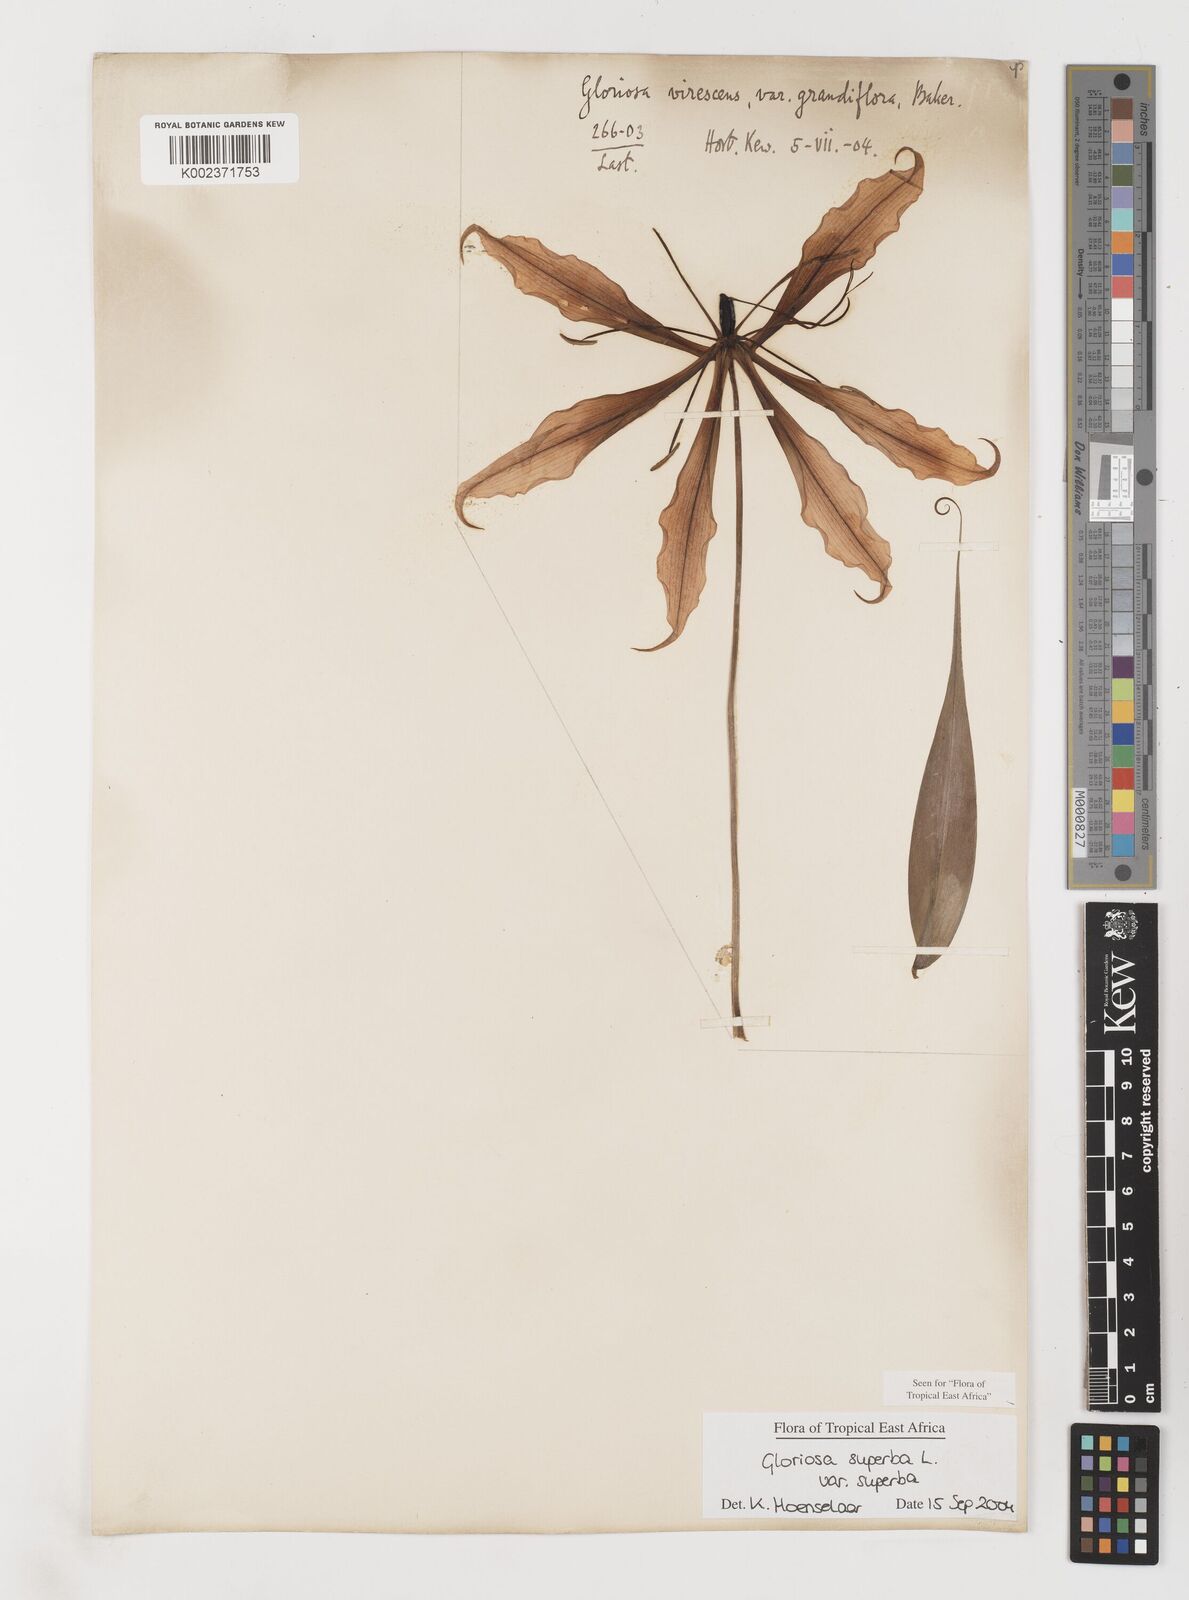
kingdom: Plantae
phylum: Tracheophyta
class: Liliopsida
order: Liliales
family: Colchicaceae
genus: Gloriosa
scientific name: Gloriosa simplex
